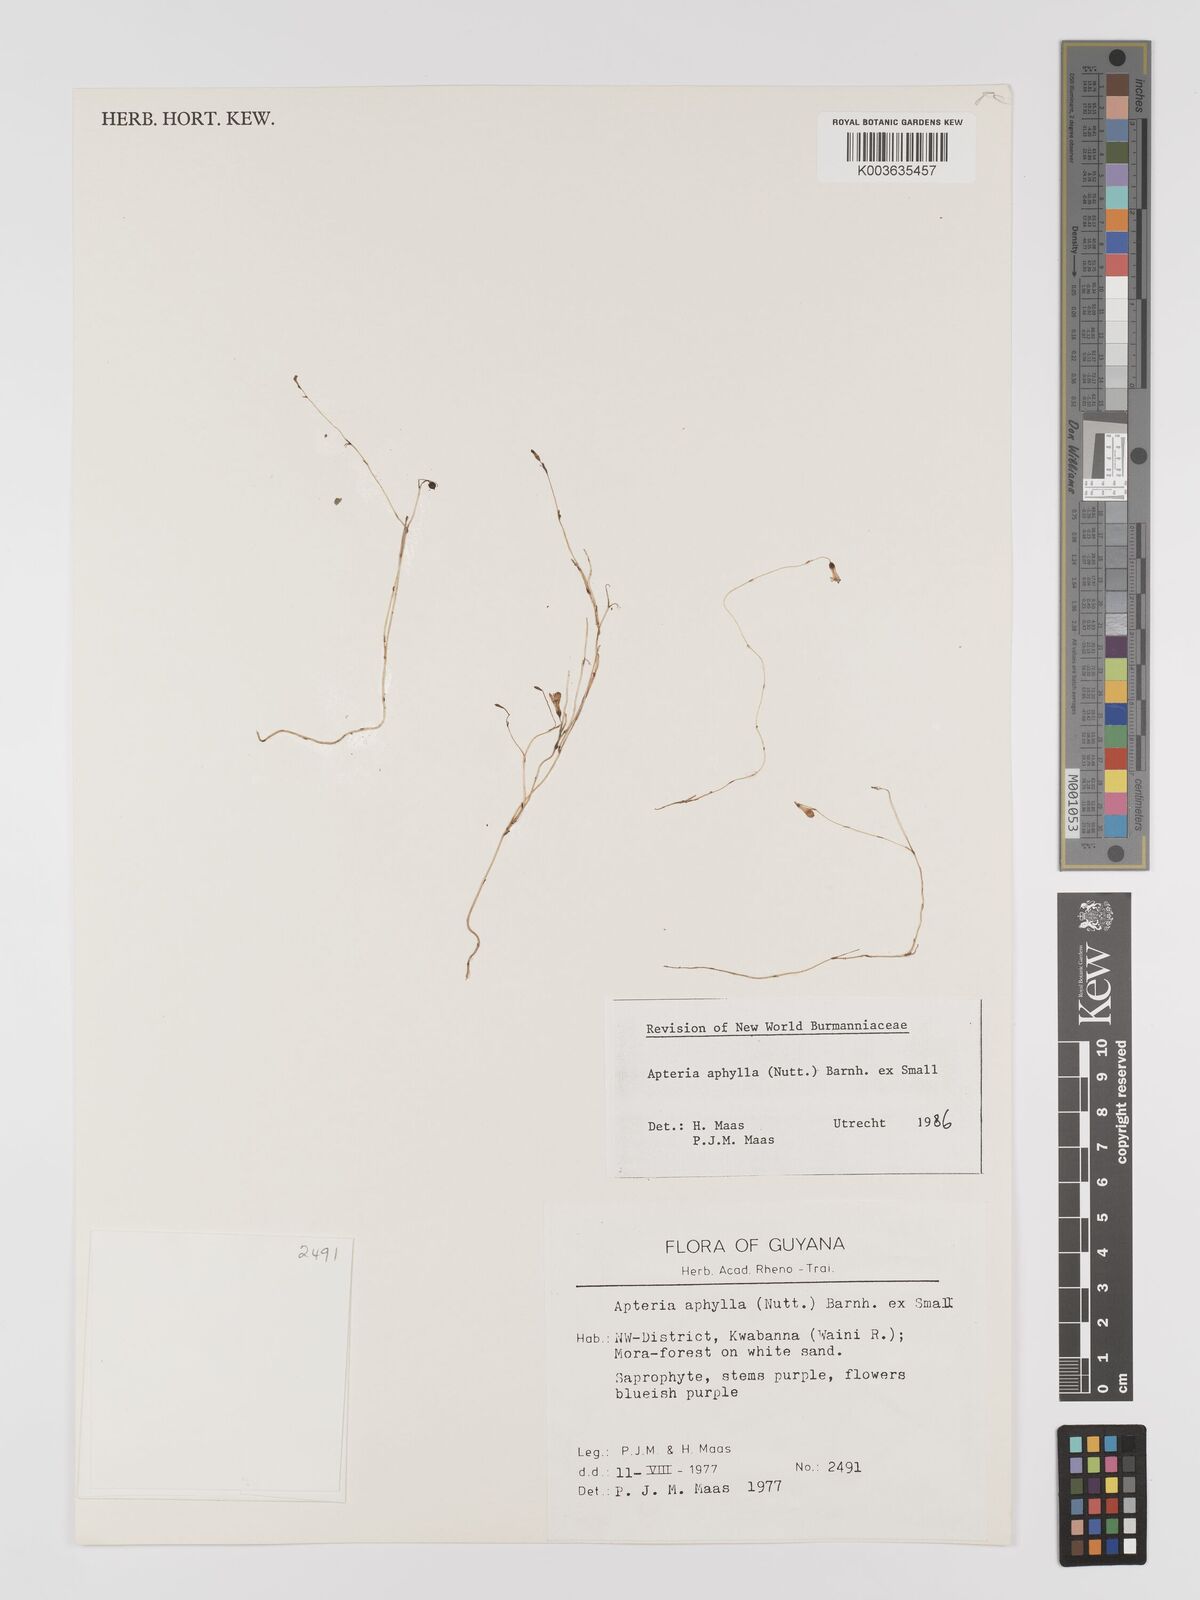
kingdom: Plantae
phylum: Tracheophyta
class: Liliopsida
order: Dioscoreales
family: Burmanniaceae
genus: Apteria
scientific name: Apteria aphylla
